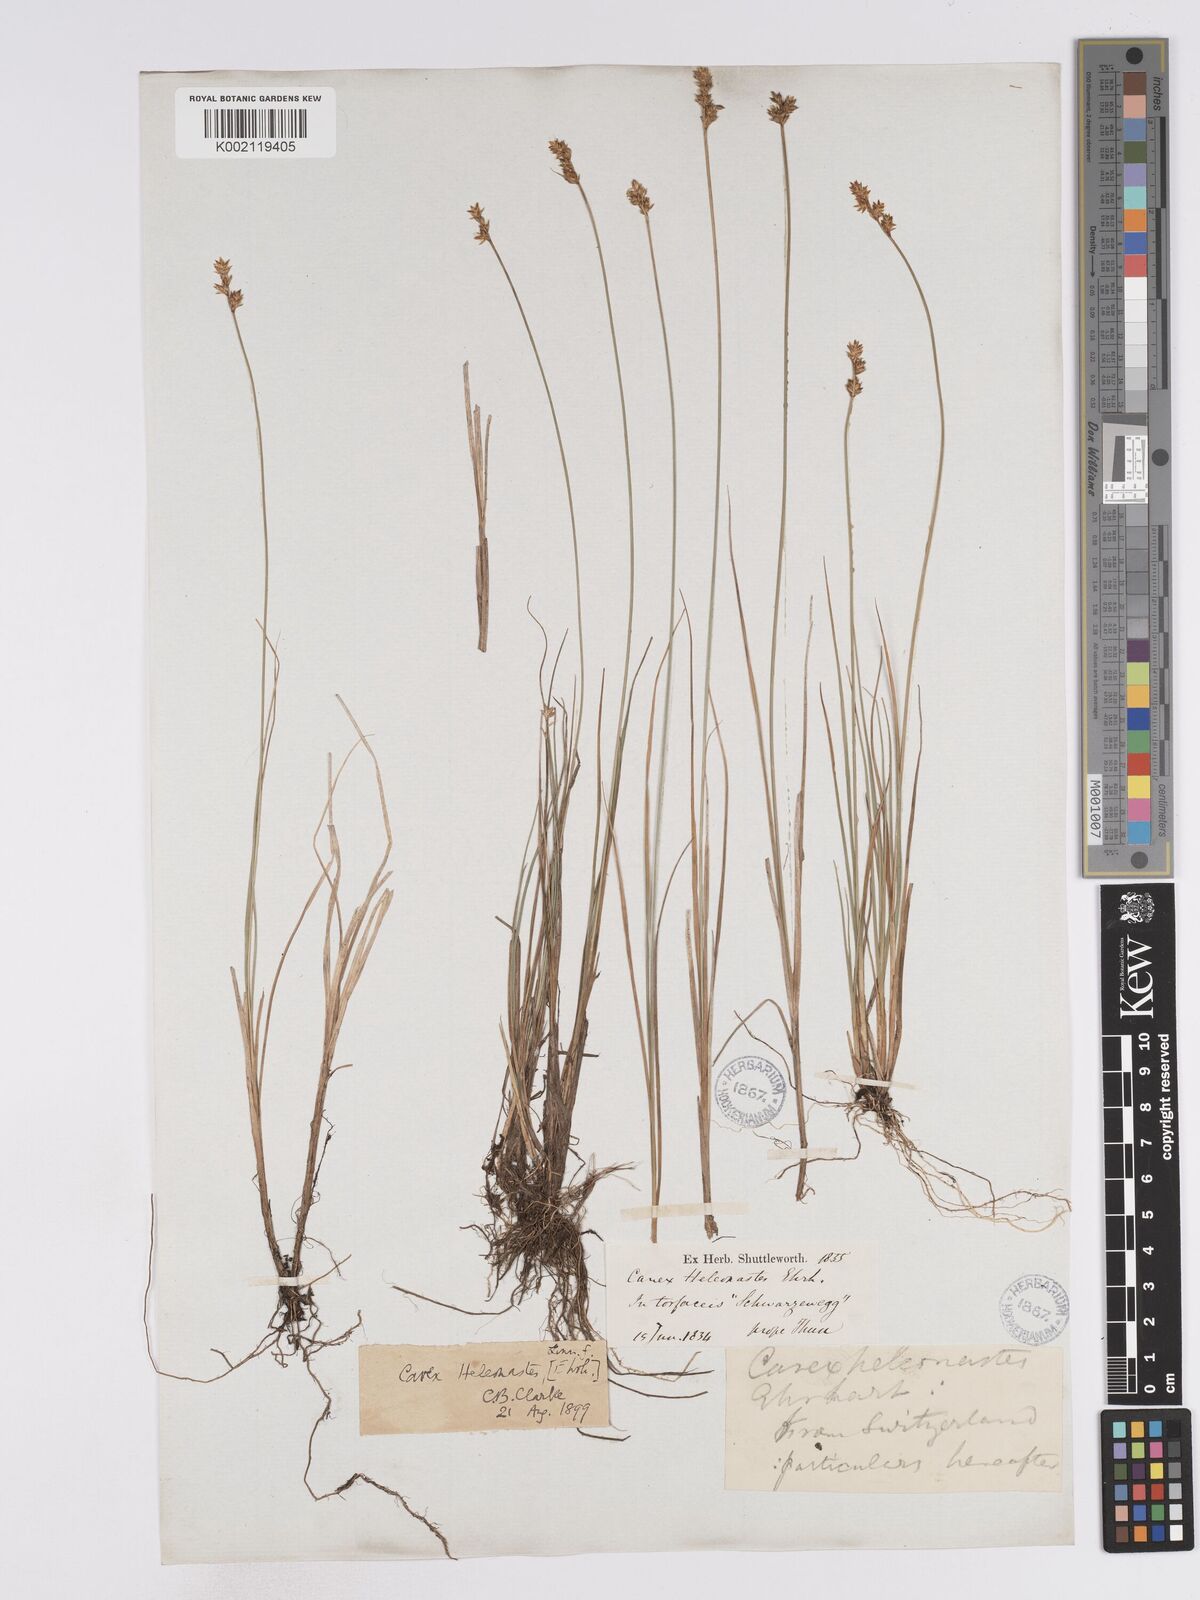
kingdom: Plantae
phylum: Tracheophyta
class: Liliopsida
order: Poales
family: Cyperaceae
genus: Carex
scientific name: Carex heleonastes
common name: Hudson bay sedge
